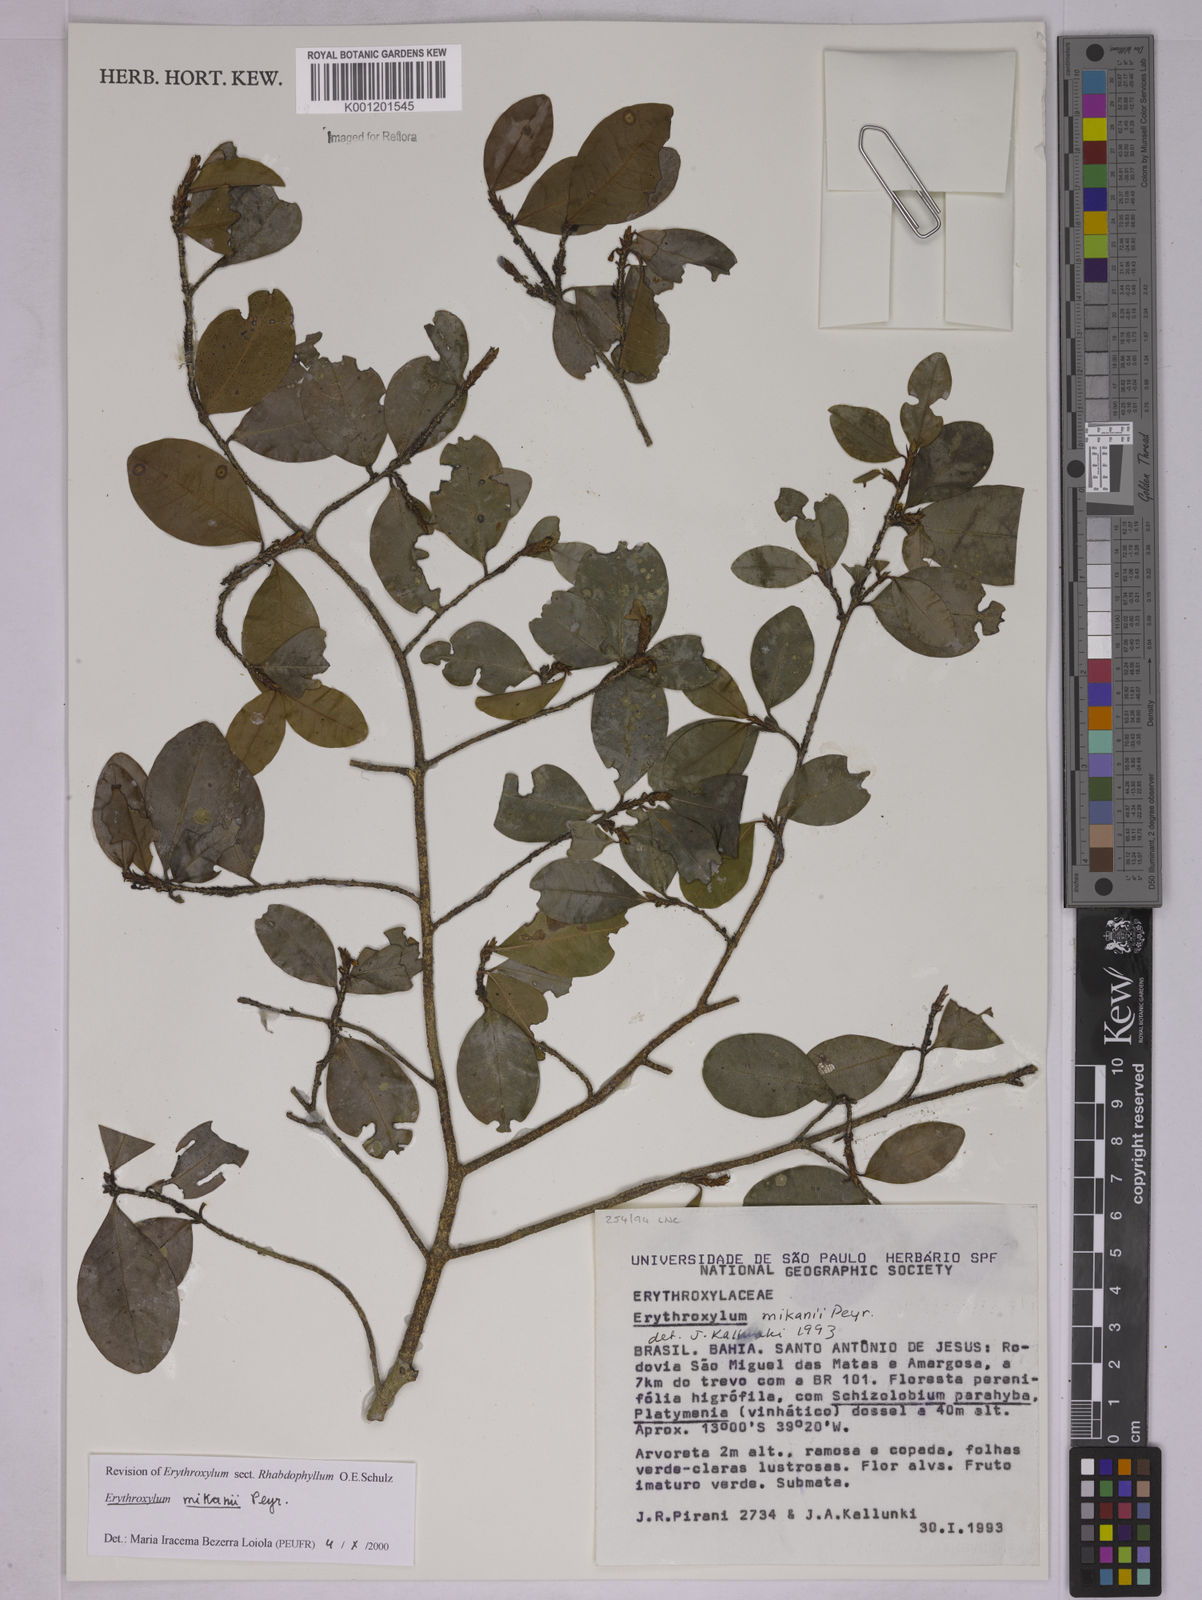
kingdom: Plantae
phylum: Tracheophyta
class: Magnoliopsida
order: Malpighiales
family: Erythroxylaceae
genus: Erythroxylum
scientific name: Erythroxylum mikanii
